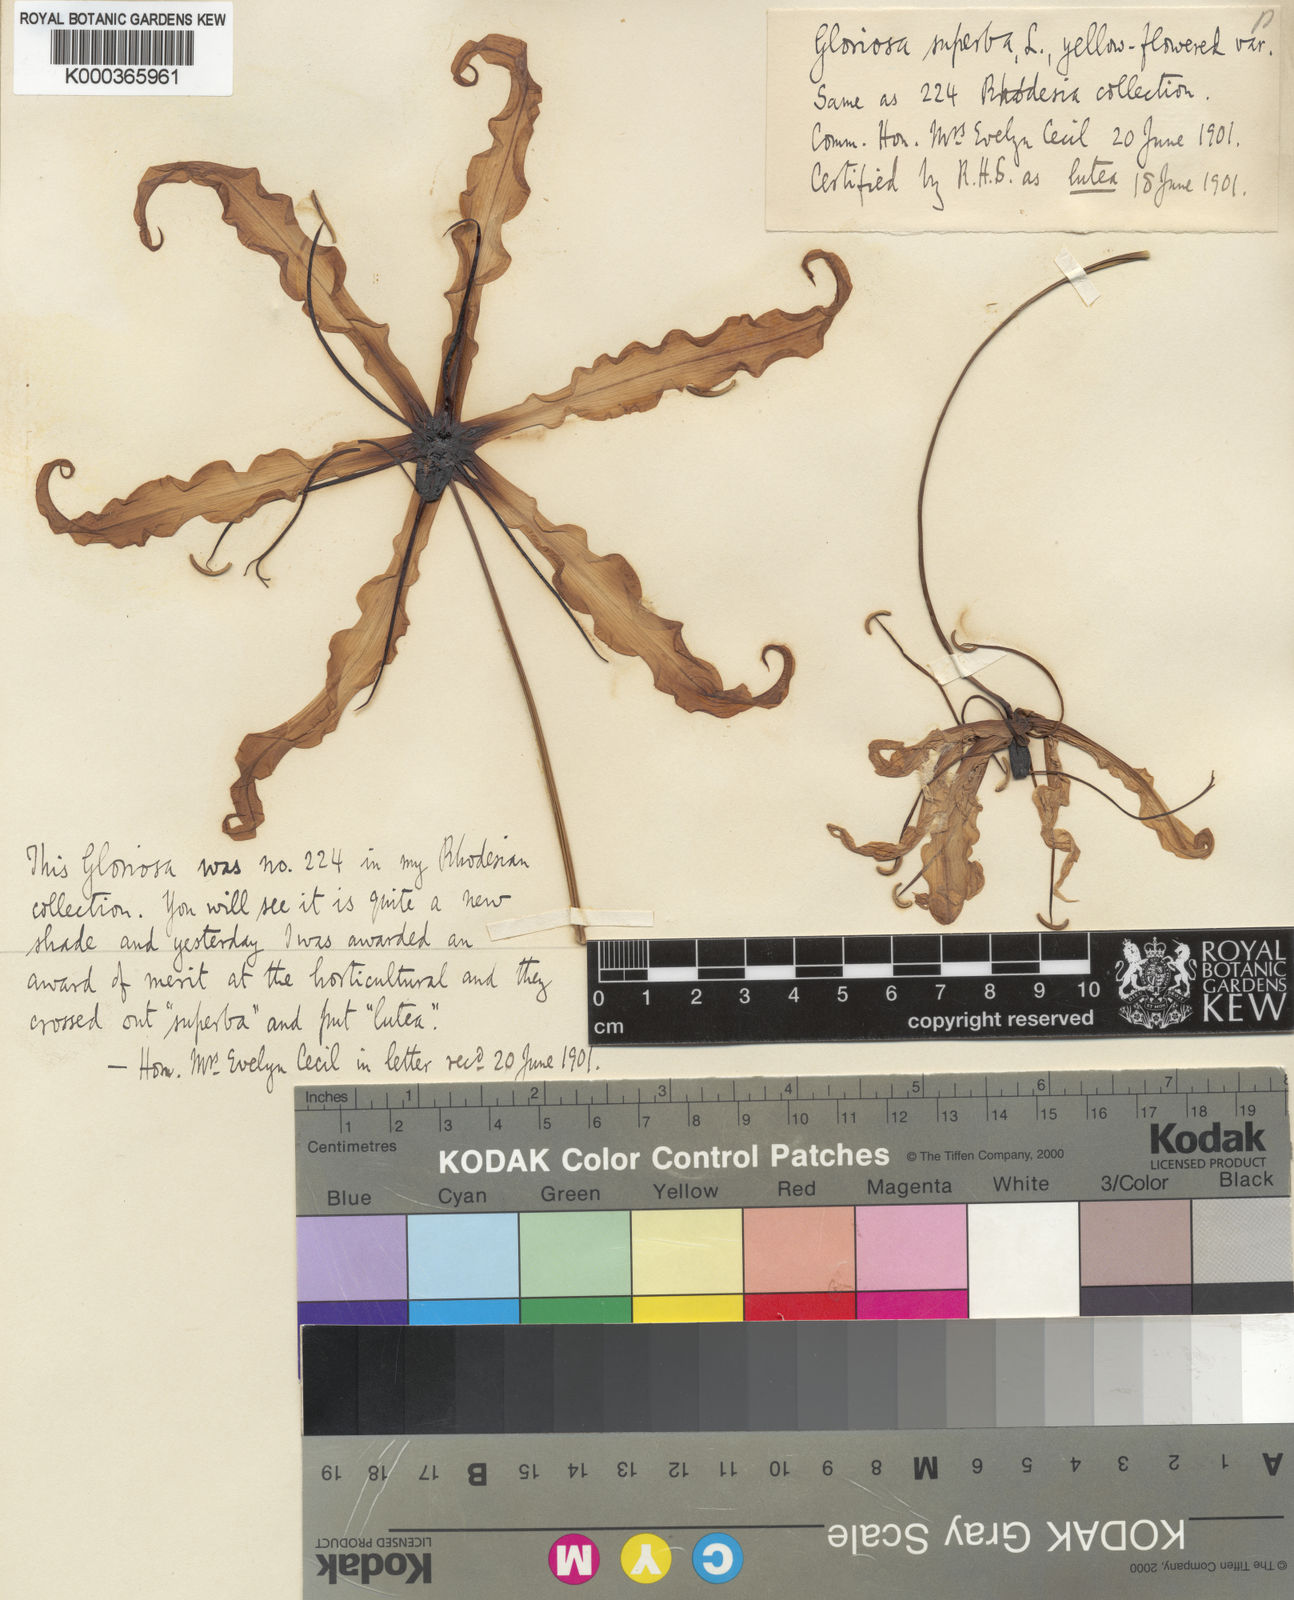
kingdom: Plantae
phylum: Tracheophyta
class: Liliopsida
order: Liliales
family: Colchicaceae
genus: Gloriosa
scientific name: Gloriosa simplex
